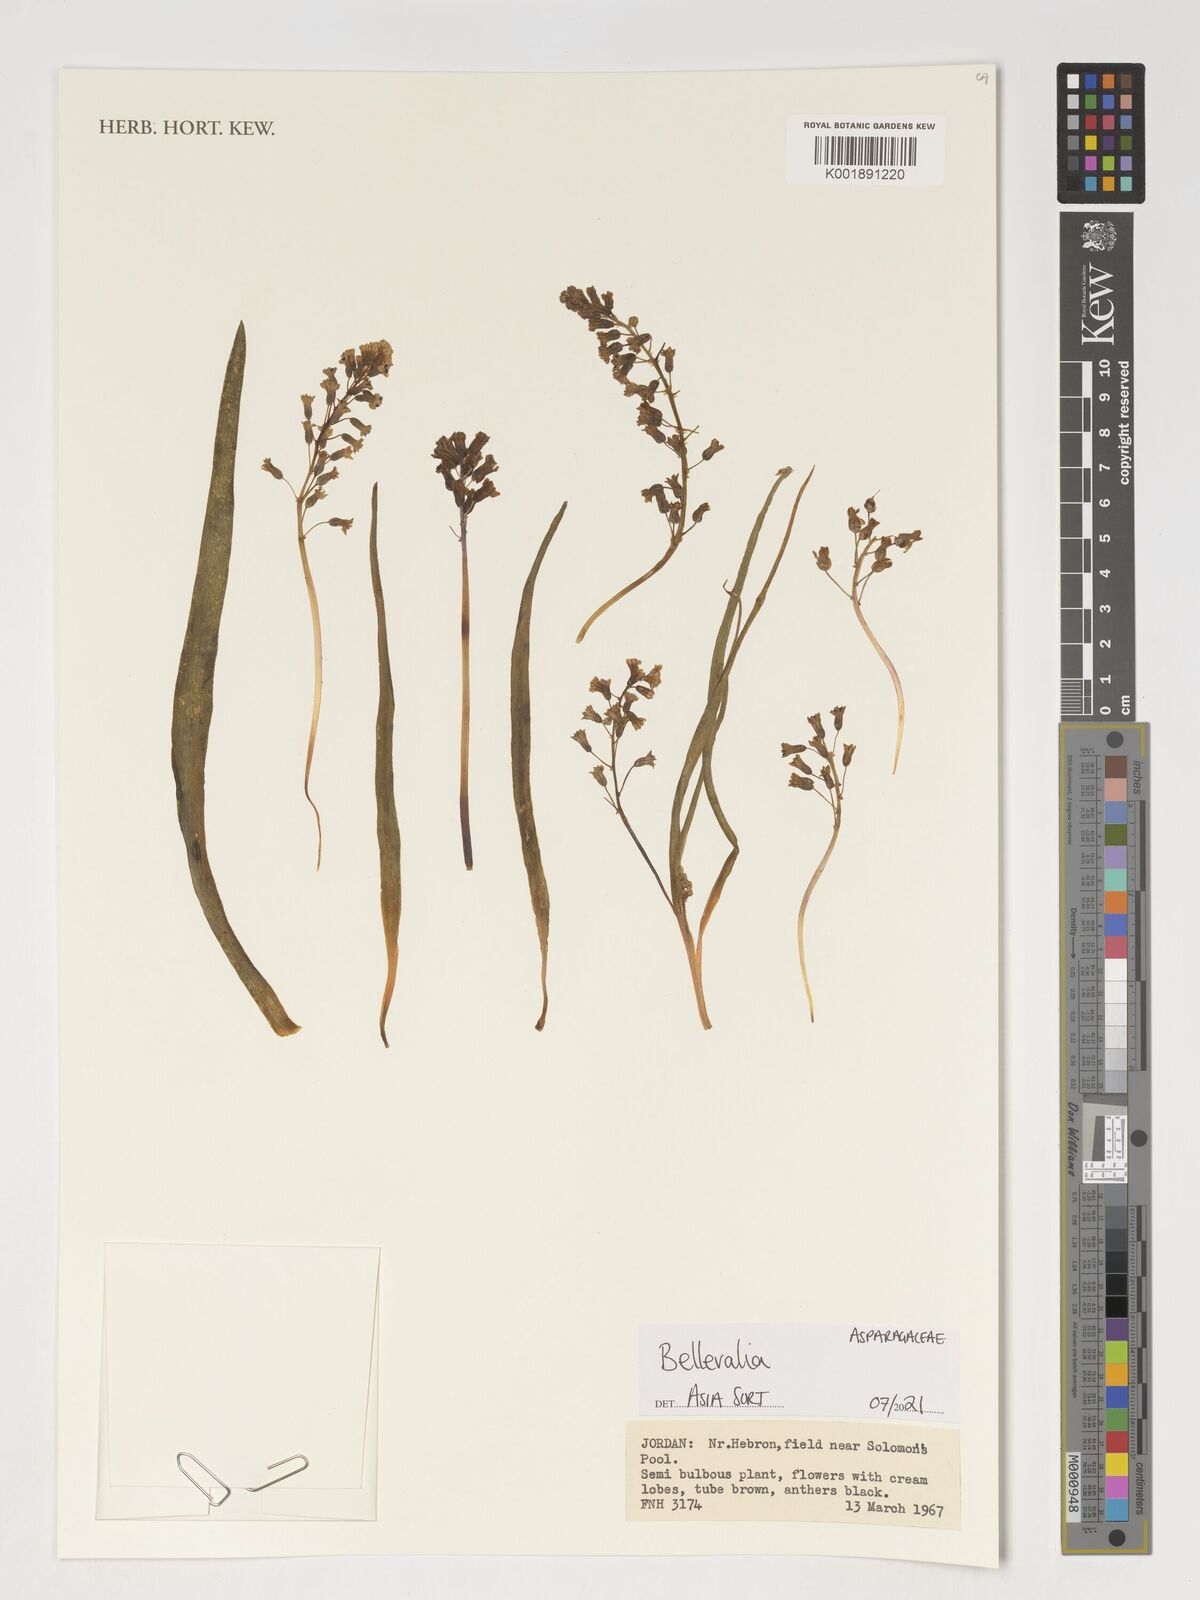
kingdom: Plantae
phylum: Tracheophyta
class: Liliopsida
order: Asparagales
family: Asparagaceae
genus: Bellevalia
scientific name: Bellevalia
